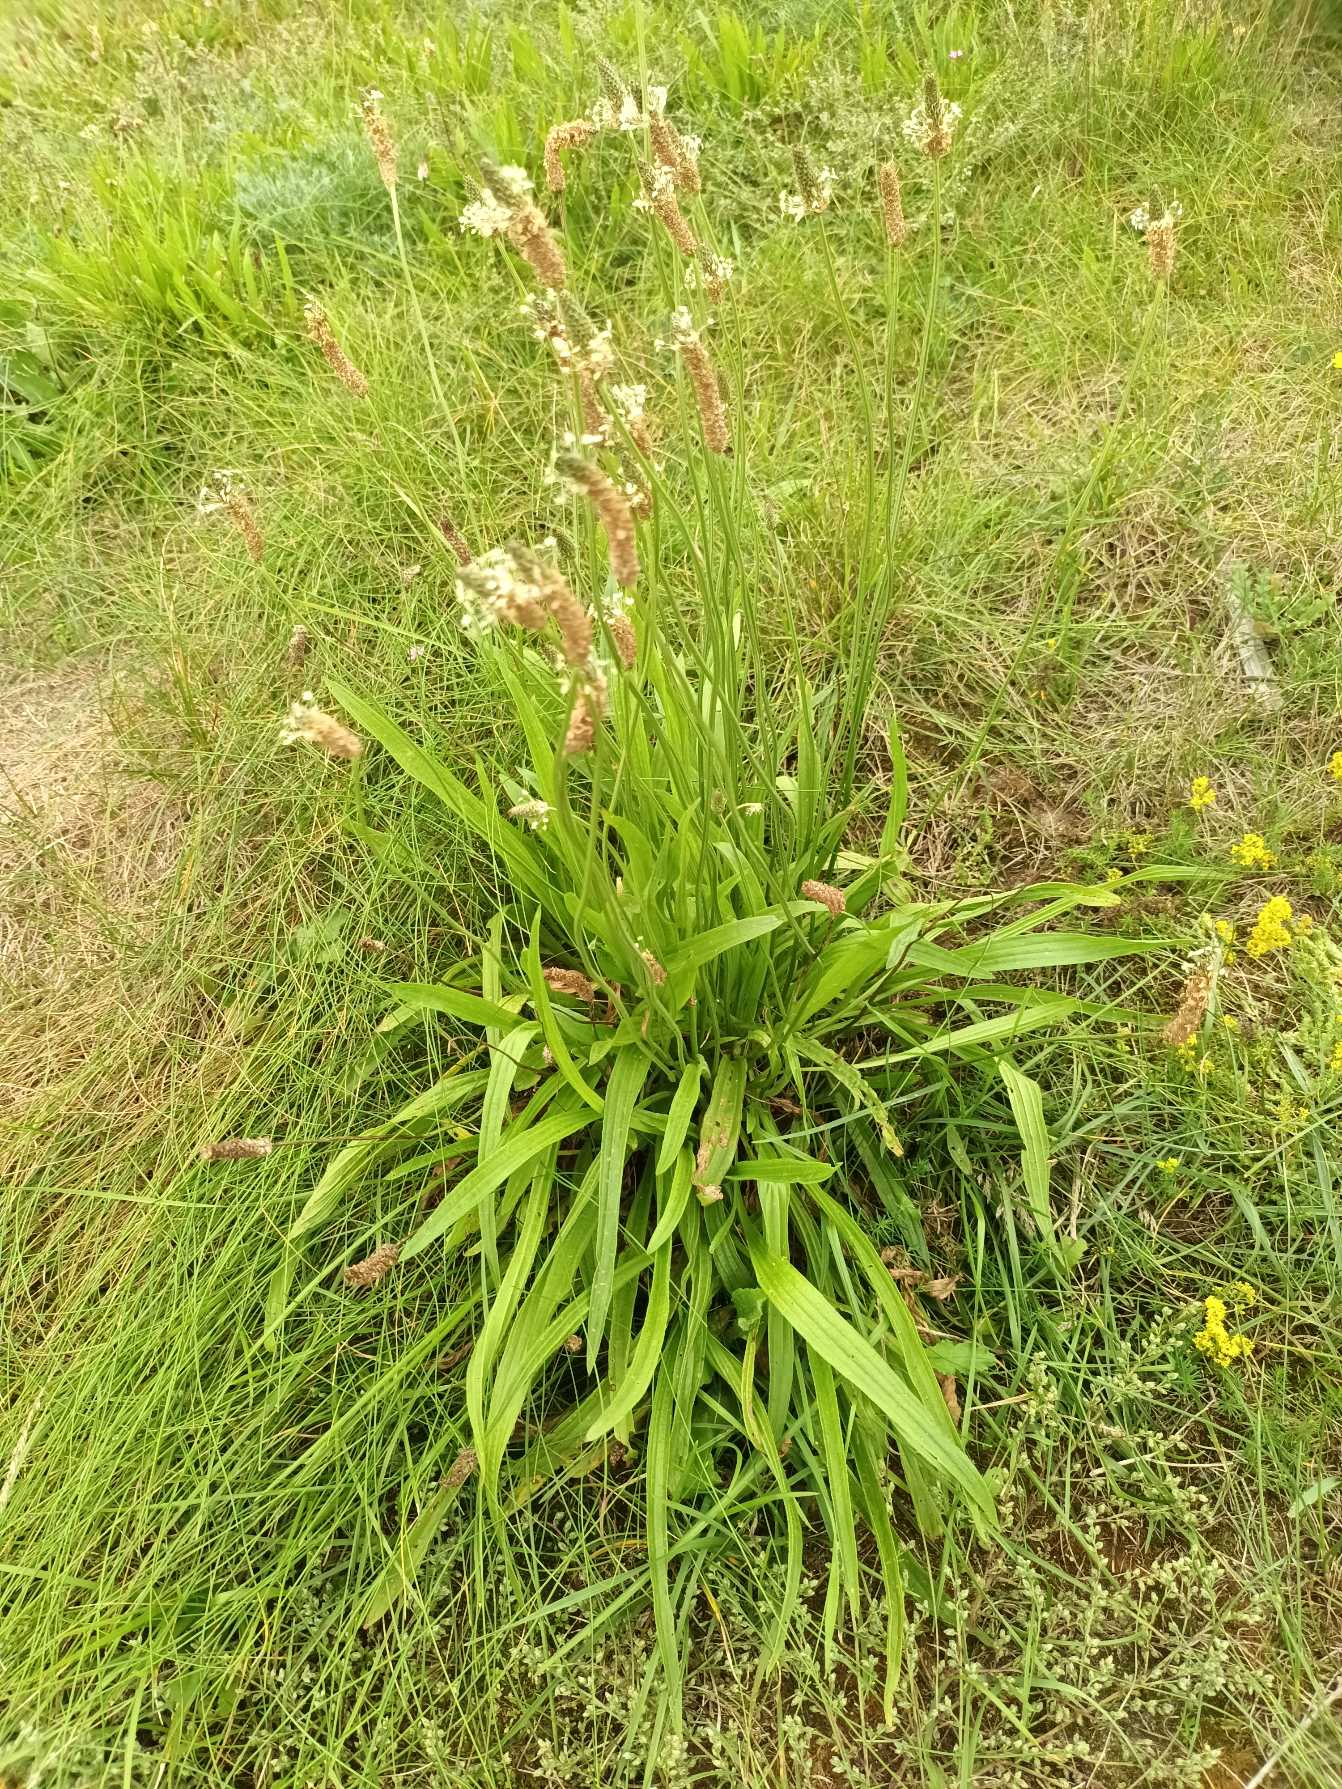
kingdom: Plantae
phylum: Tracheophyta
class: Magnoliopsida
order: Lamiales
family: Plantaginaceae
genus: Plantago
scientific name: Plantago lanceolata
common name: Lancet-vejbred
